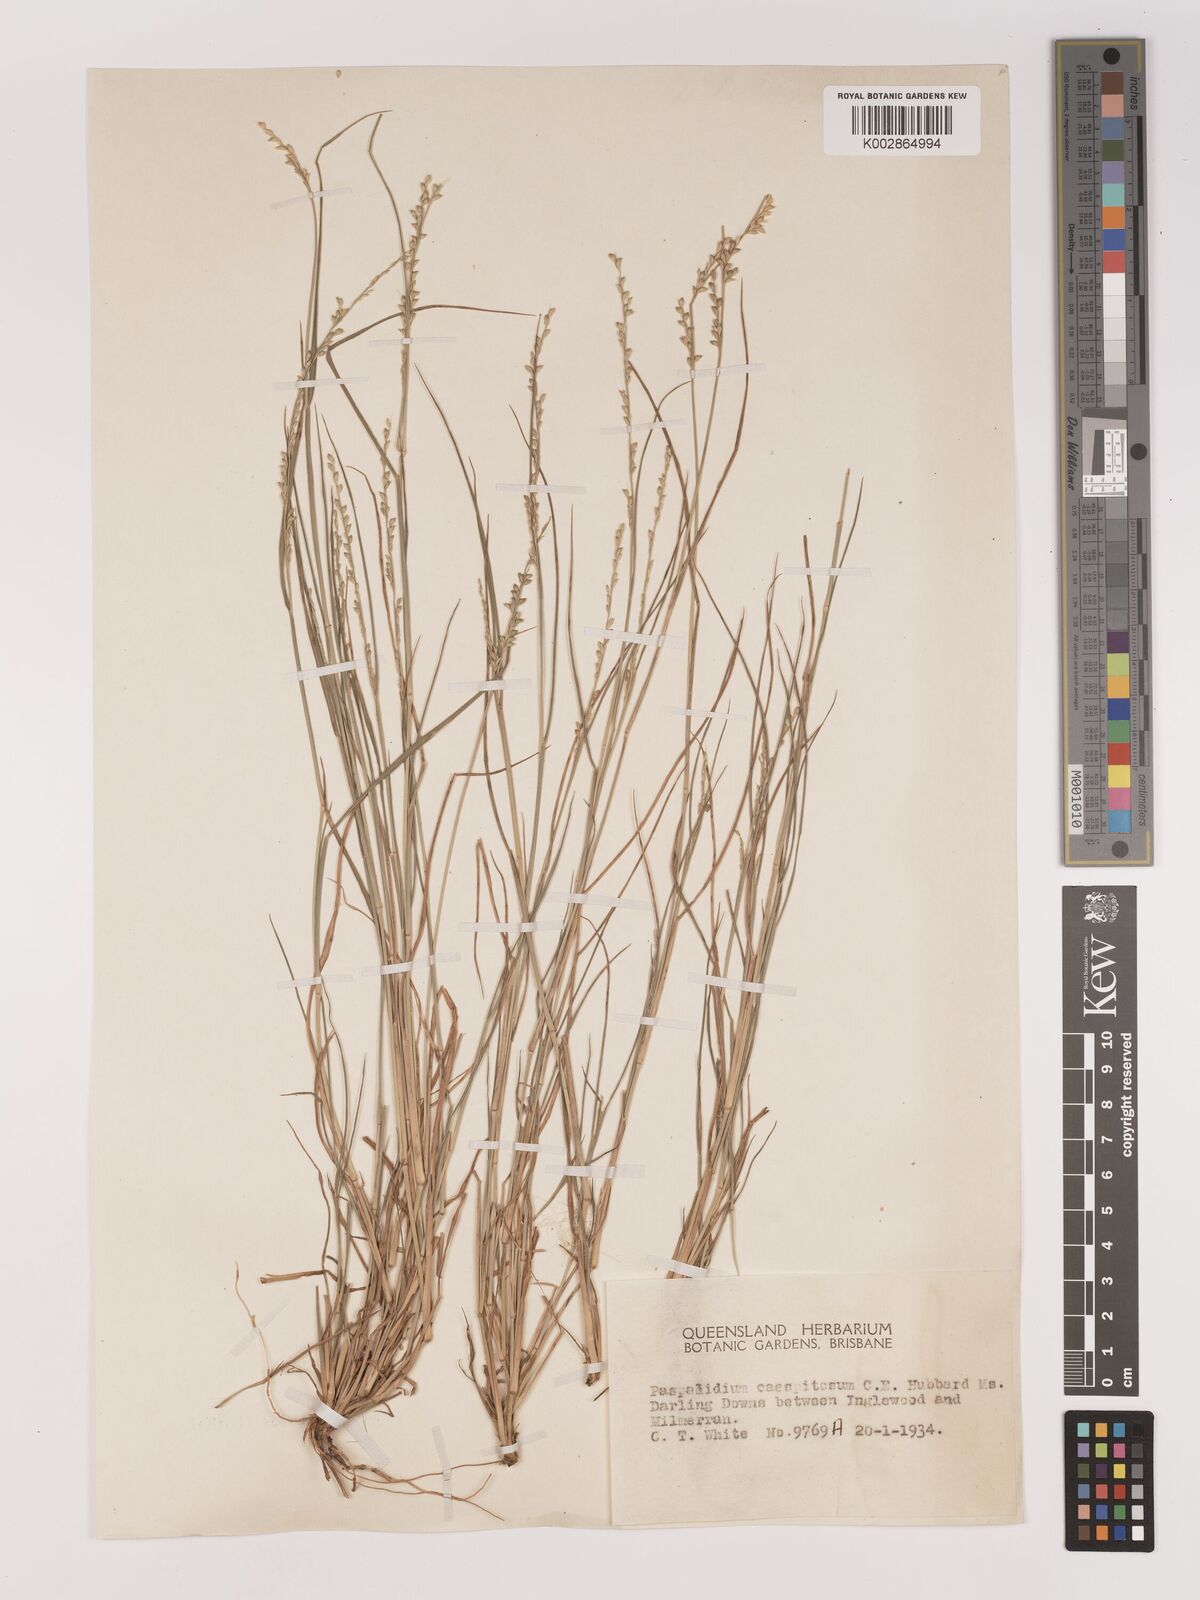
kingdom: Plantae
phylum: Tracheophyta
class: Liliopsida
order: Poales
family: Poaceae
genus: Setaria
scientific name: Setaria
